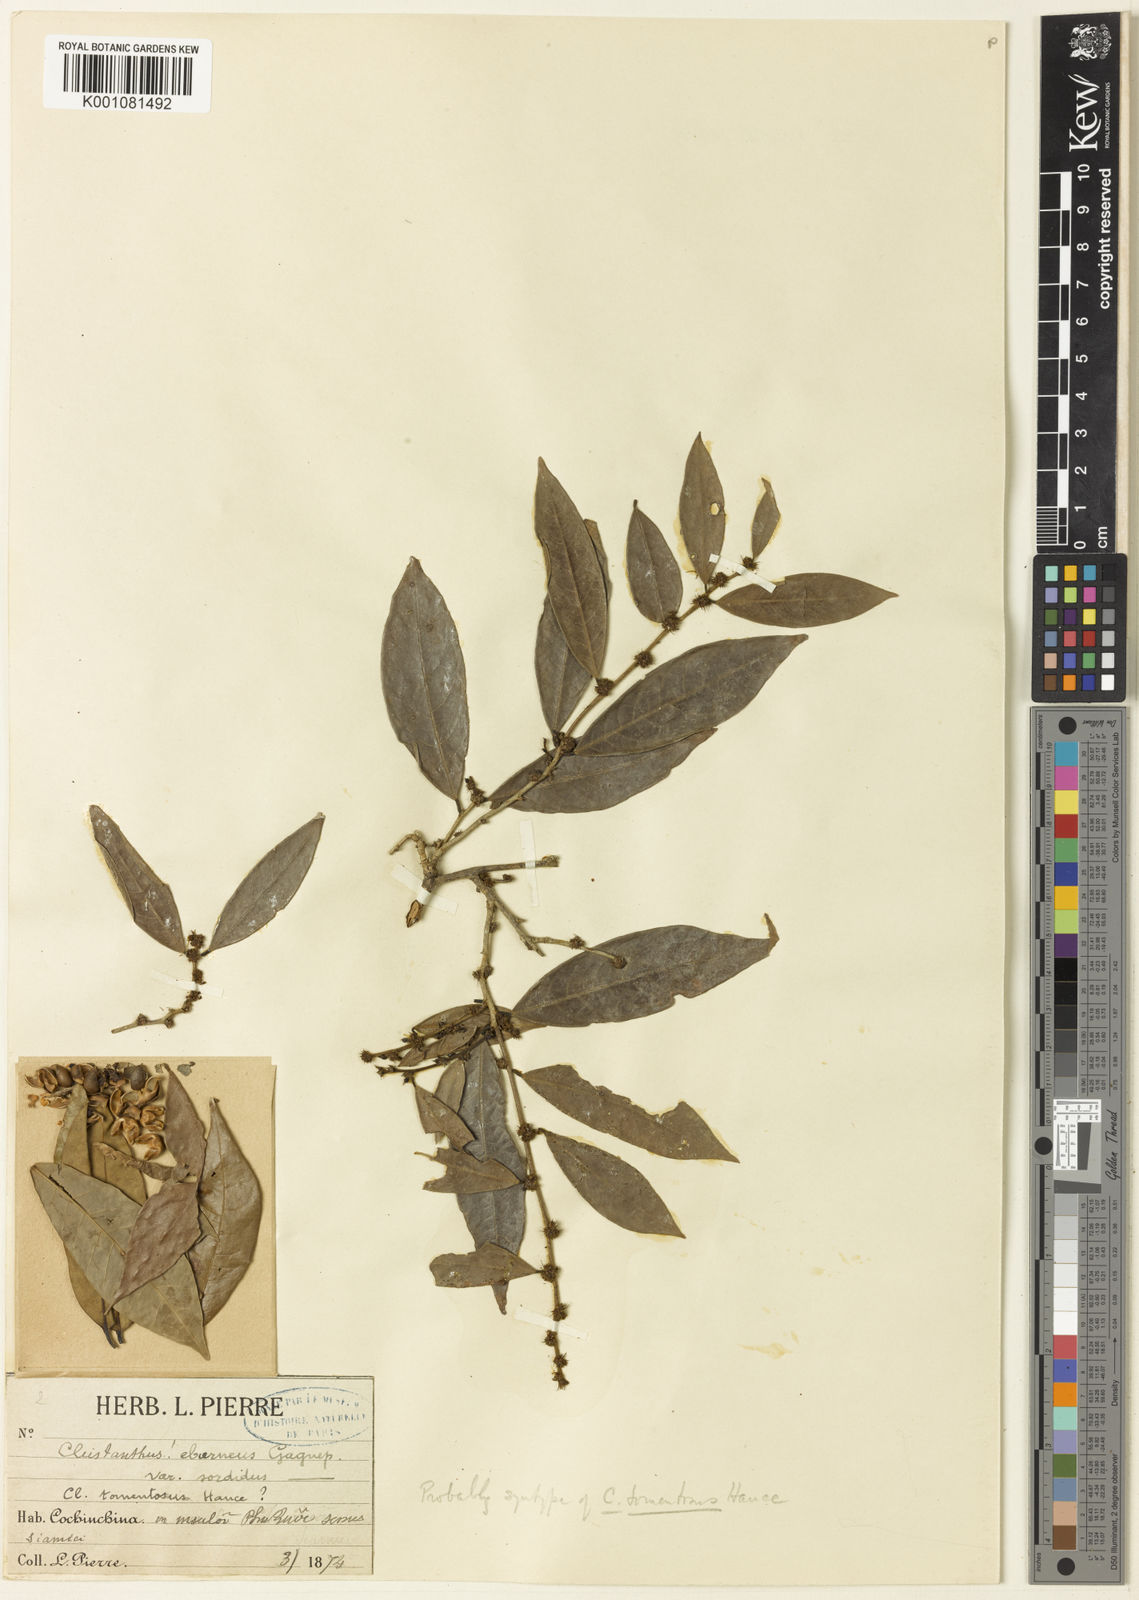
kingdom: Plantae
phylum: Tracheophyta
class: Magnoliopsida
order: Malpighiales
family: Phyllanthaceae
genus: Cleistanthus
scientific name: Cleistanthus tomentosus
